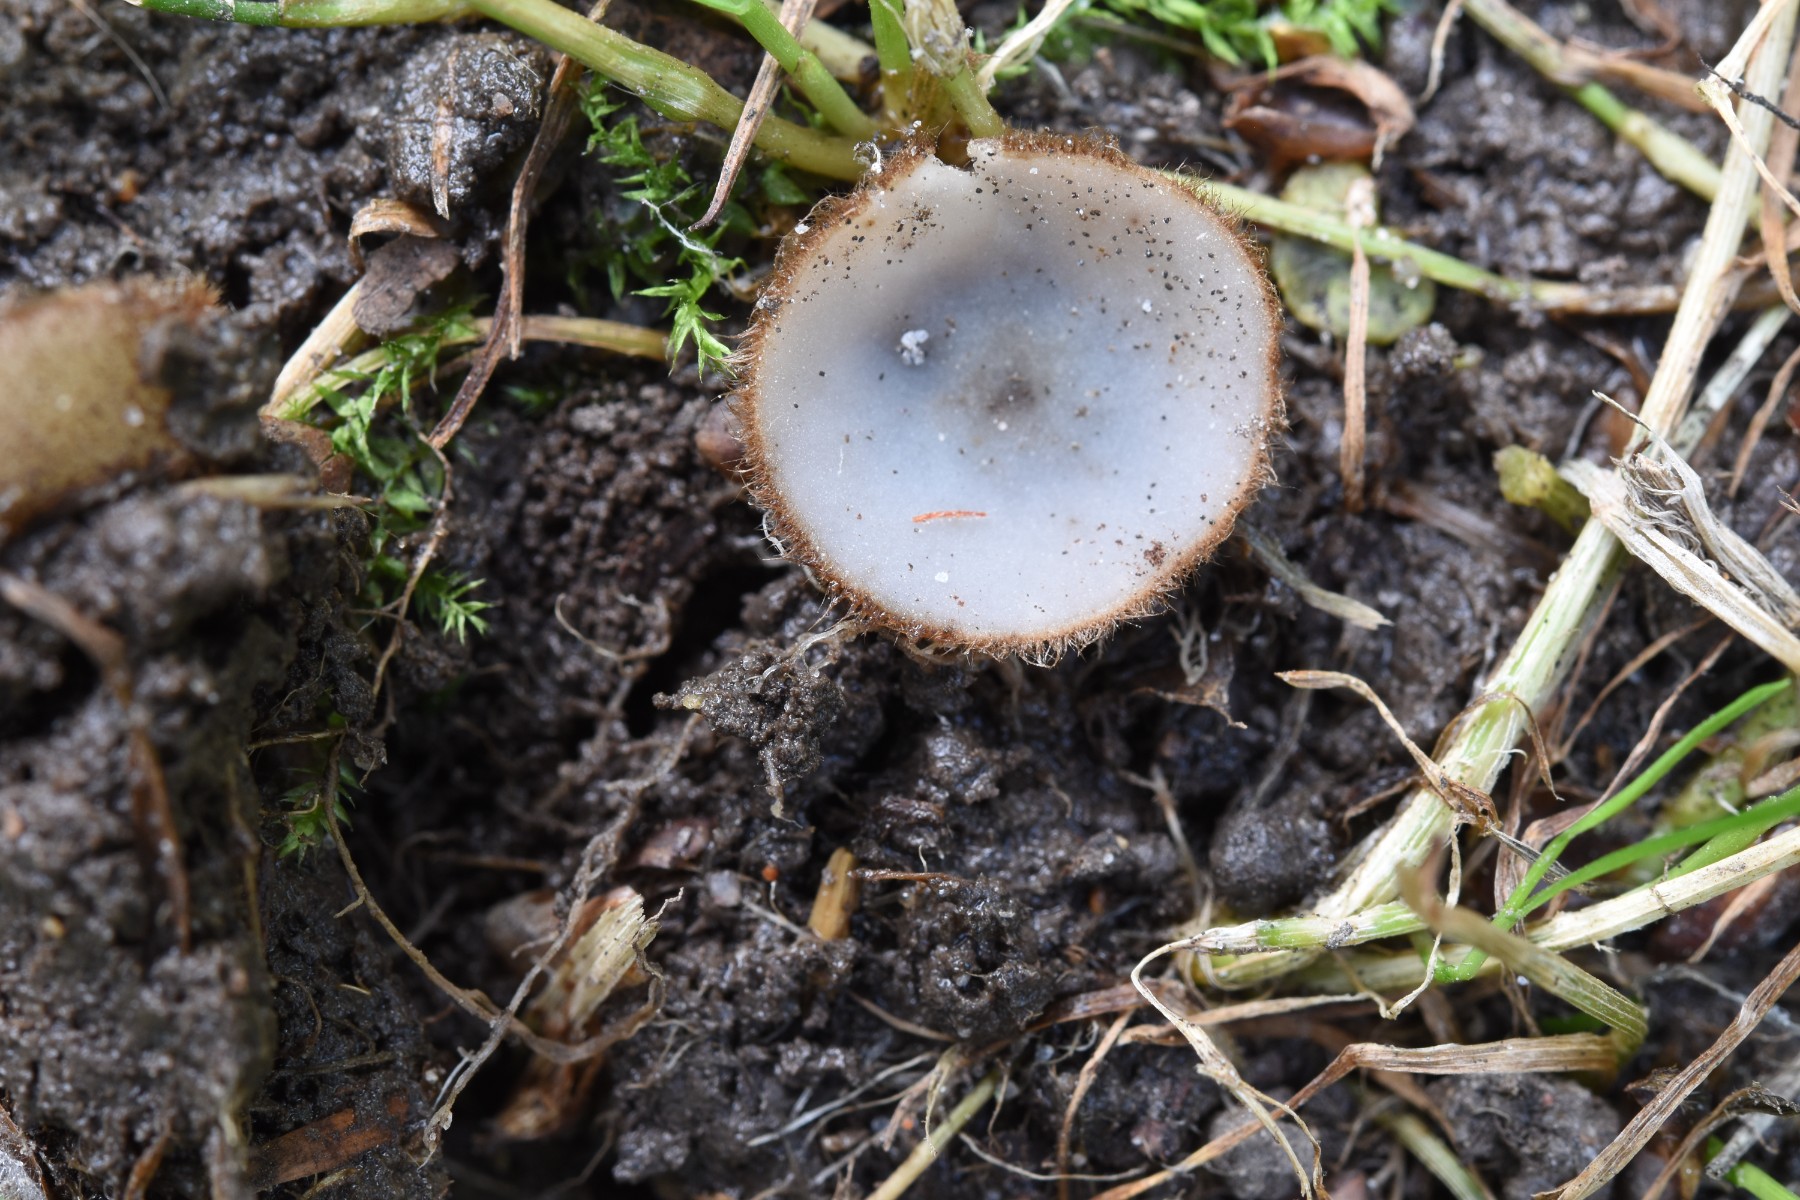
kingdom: Fungi
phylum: Ascomycota
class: Pezizomycetes
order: Pezizales
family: Pyronemataceae
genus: Humaria
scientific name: Humaria hemisphaerica
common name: halvkugleformet børstebæger
